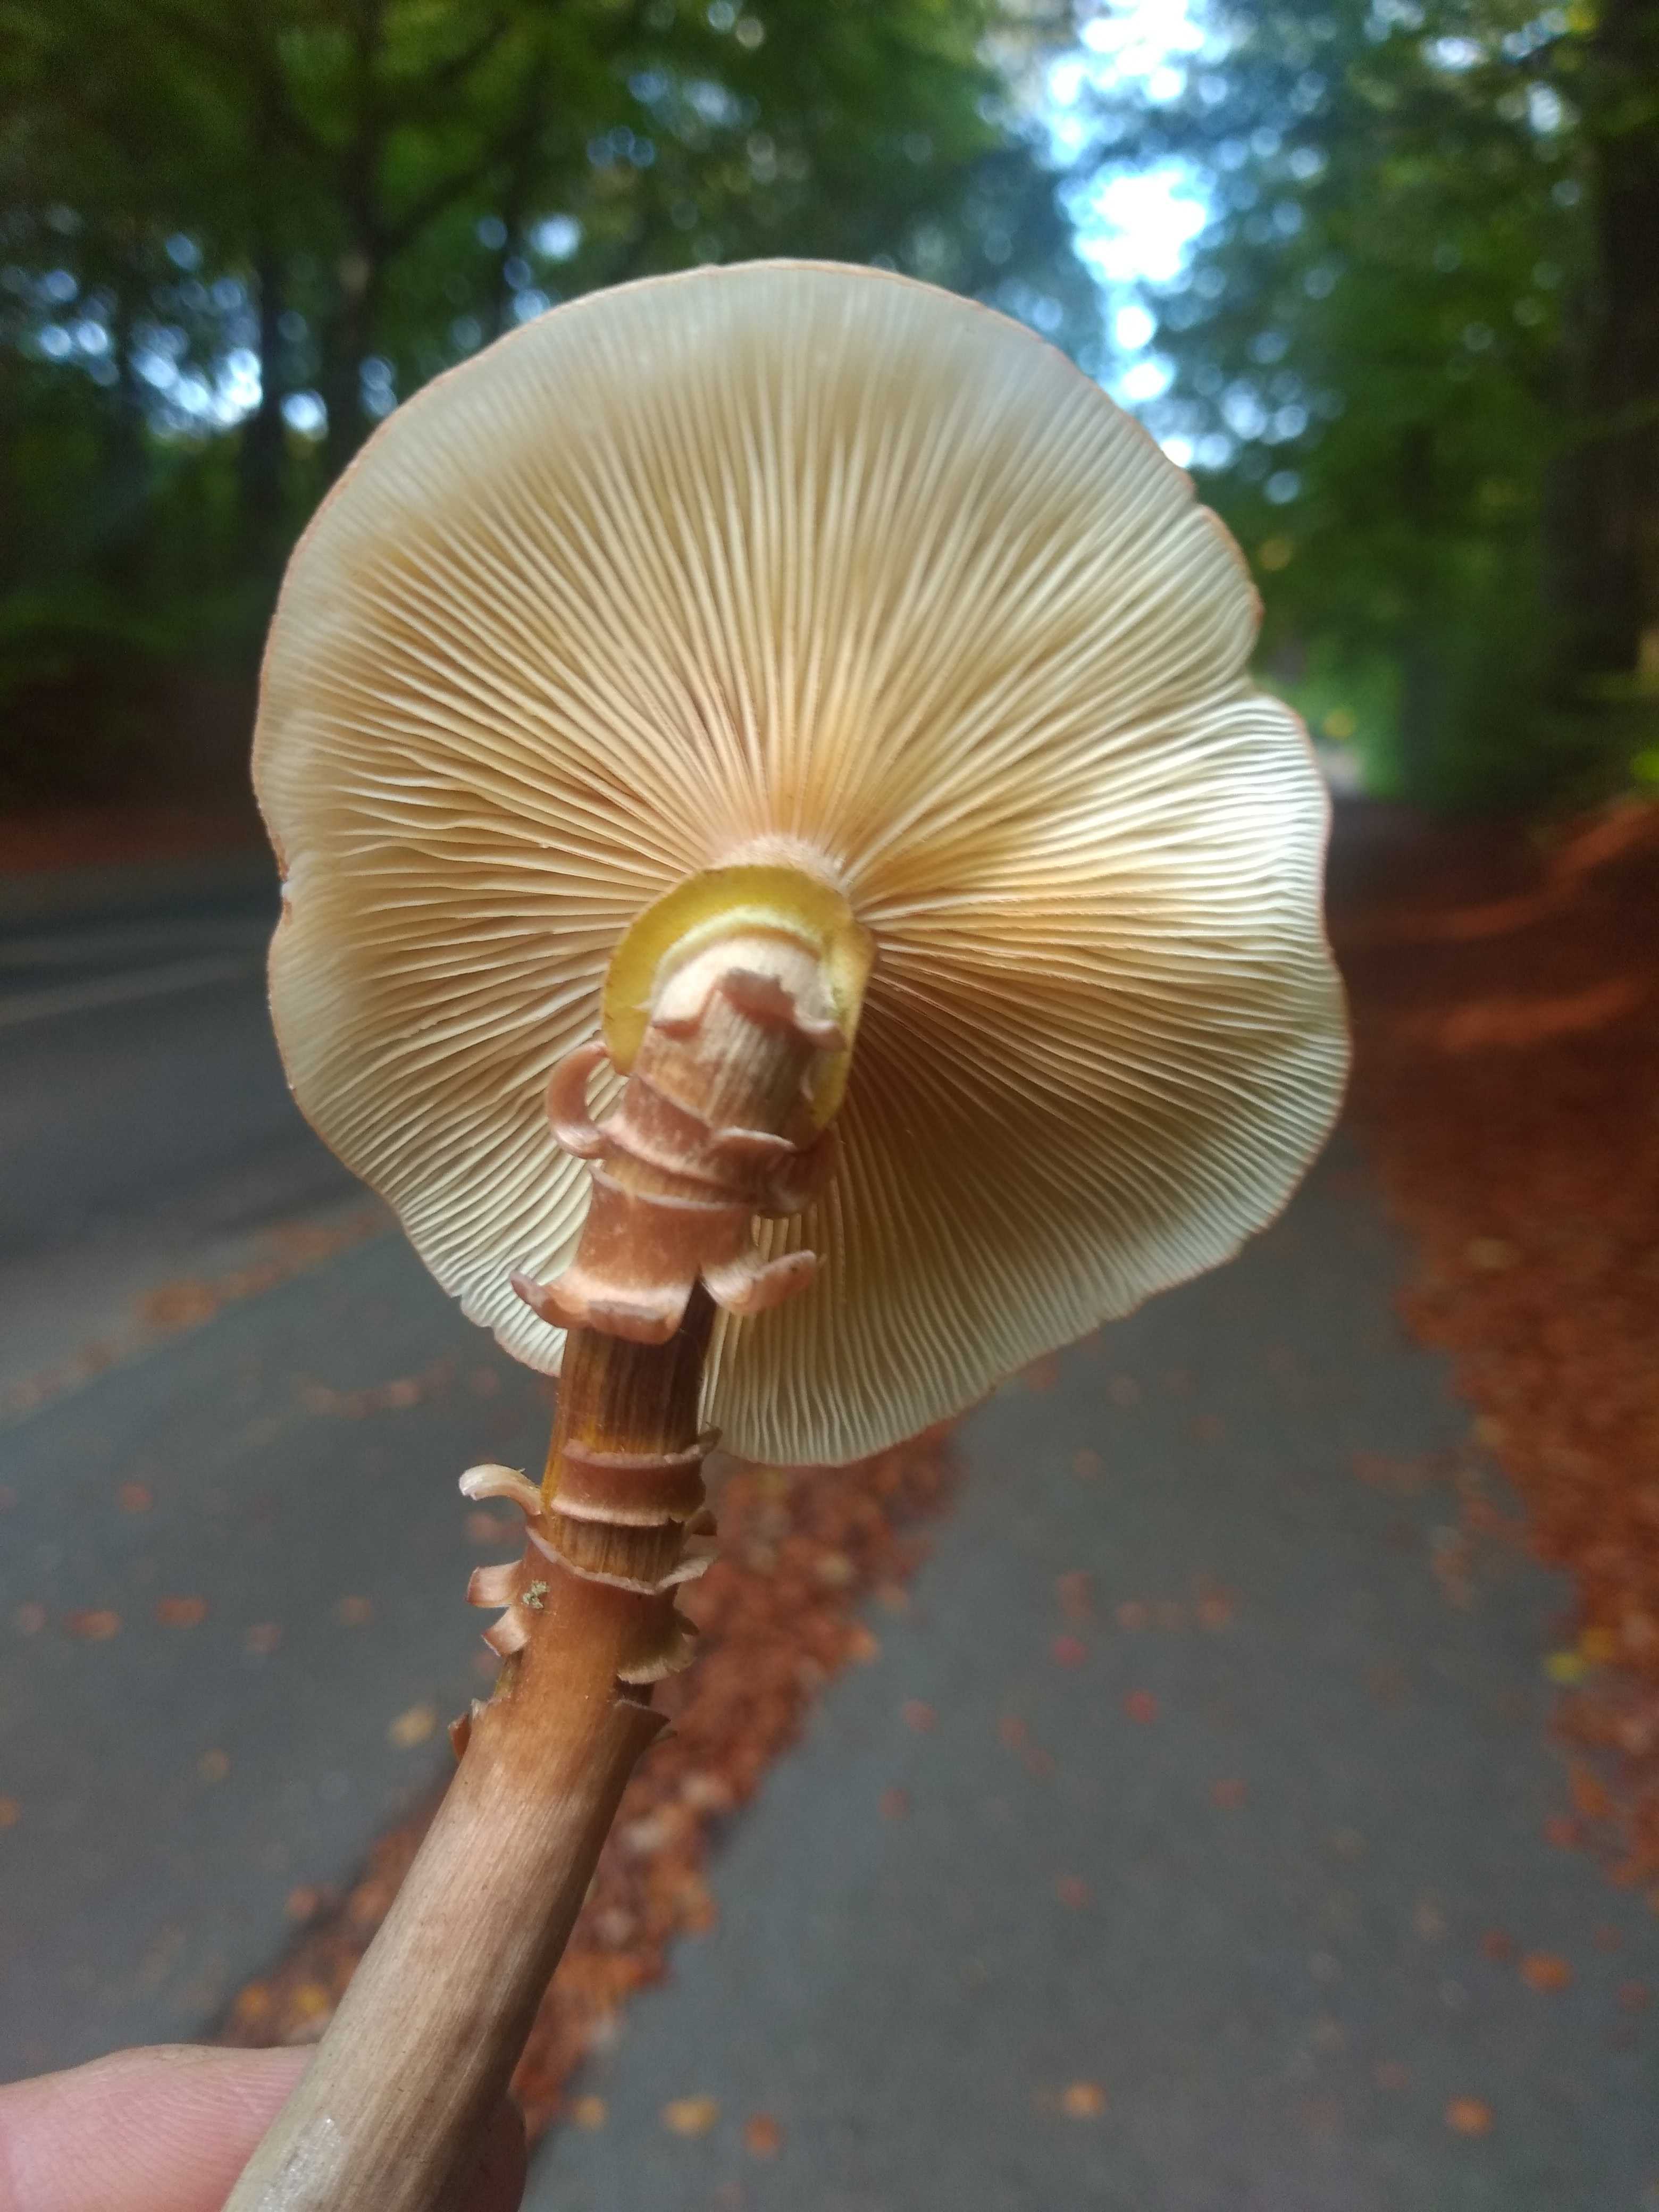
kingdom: Fungi
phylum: Basidiomycota
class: Agaricomycetes
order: Agaricales
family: Physalacriaceae
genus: Armillaria
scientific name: Armillaria mellea
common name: ægte honningsvamp
